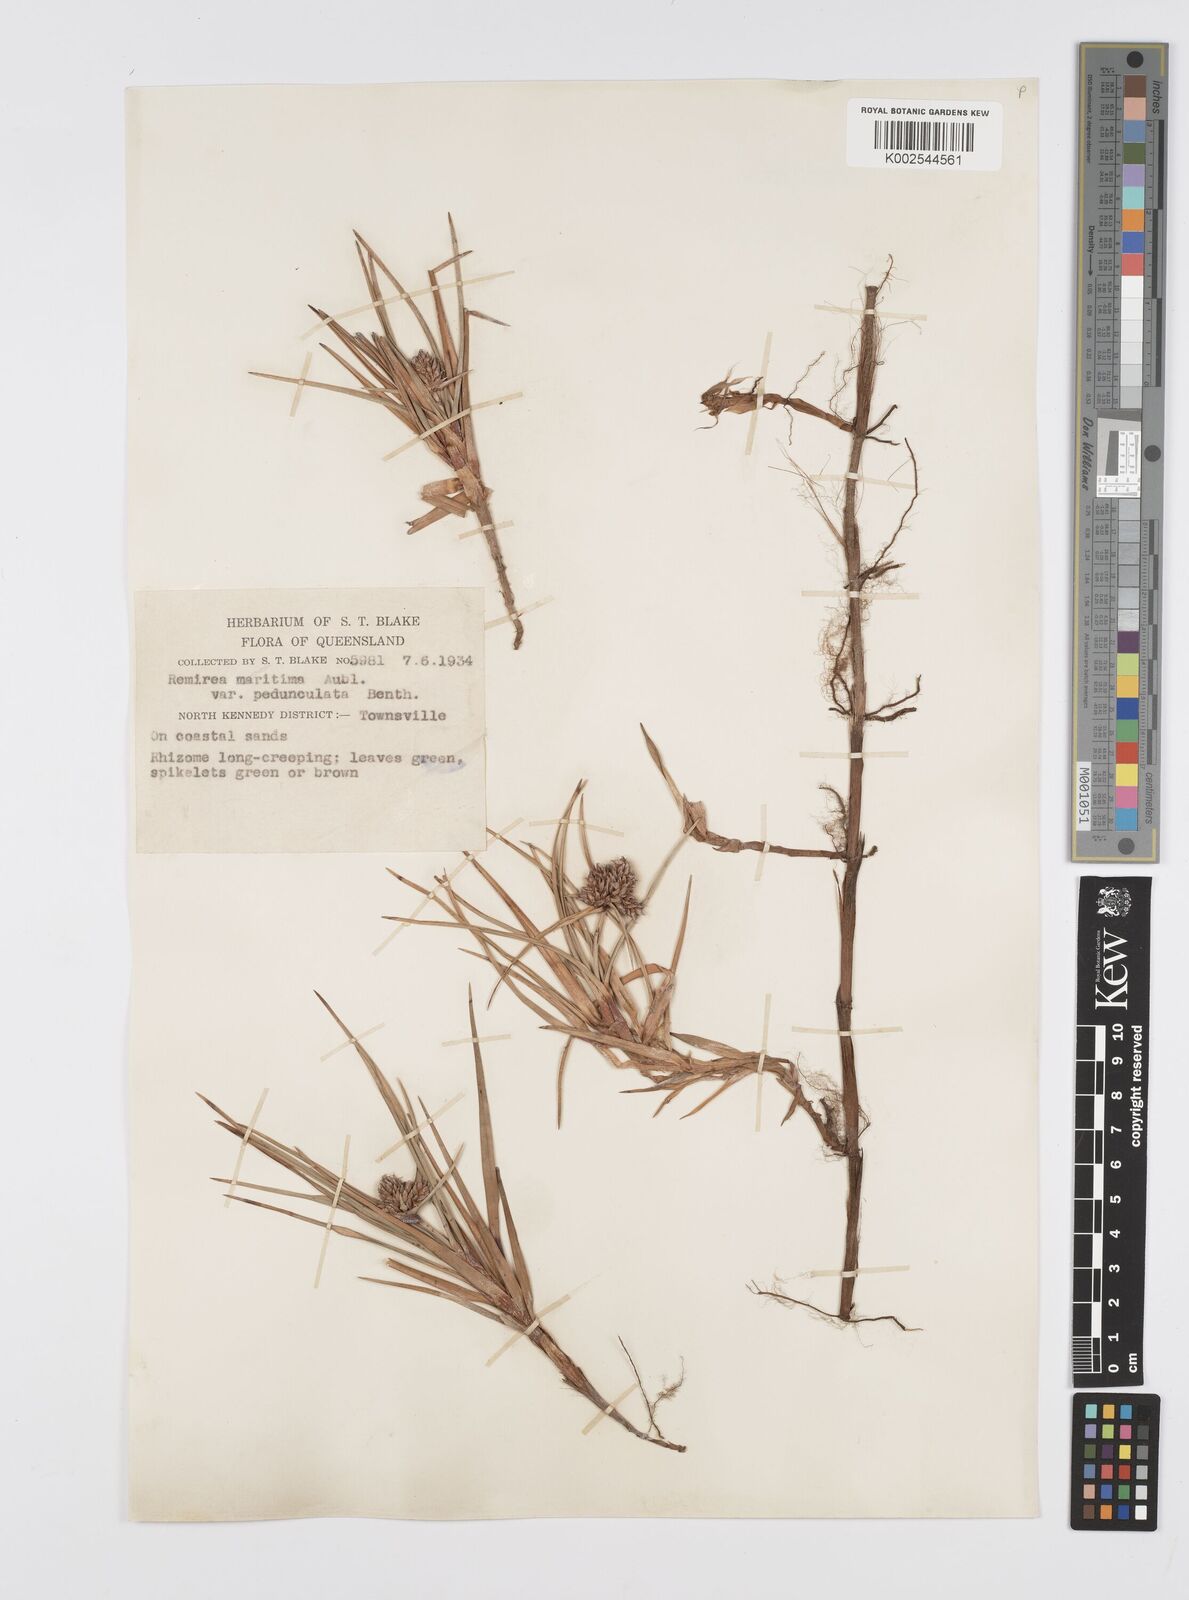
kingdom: Plantae
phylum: Tracheophyta
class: Liliopsida
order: Poales
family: Cyperaceae
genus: Cyperus
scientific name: Cyperus
